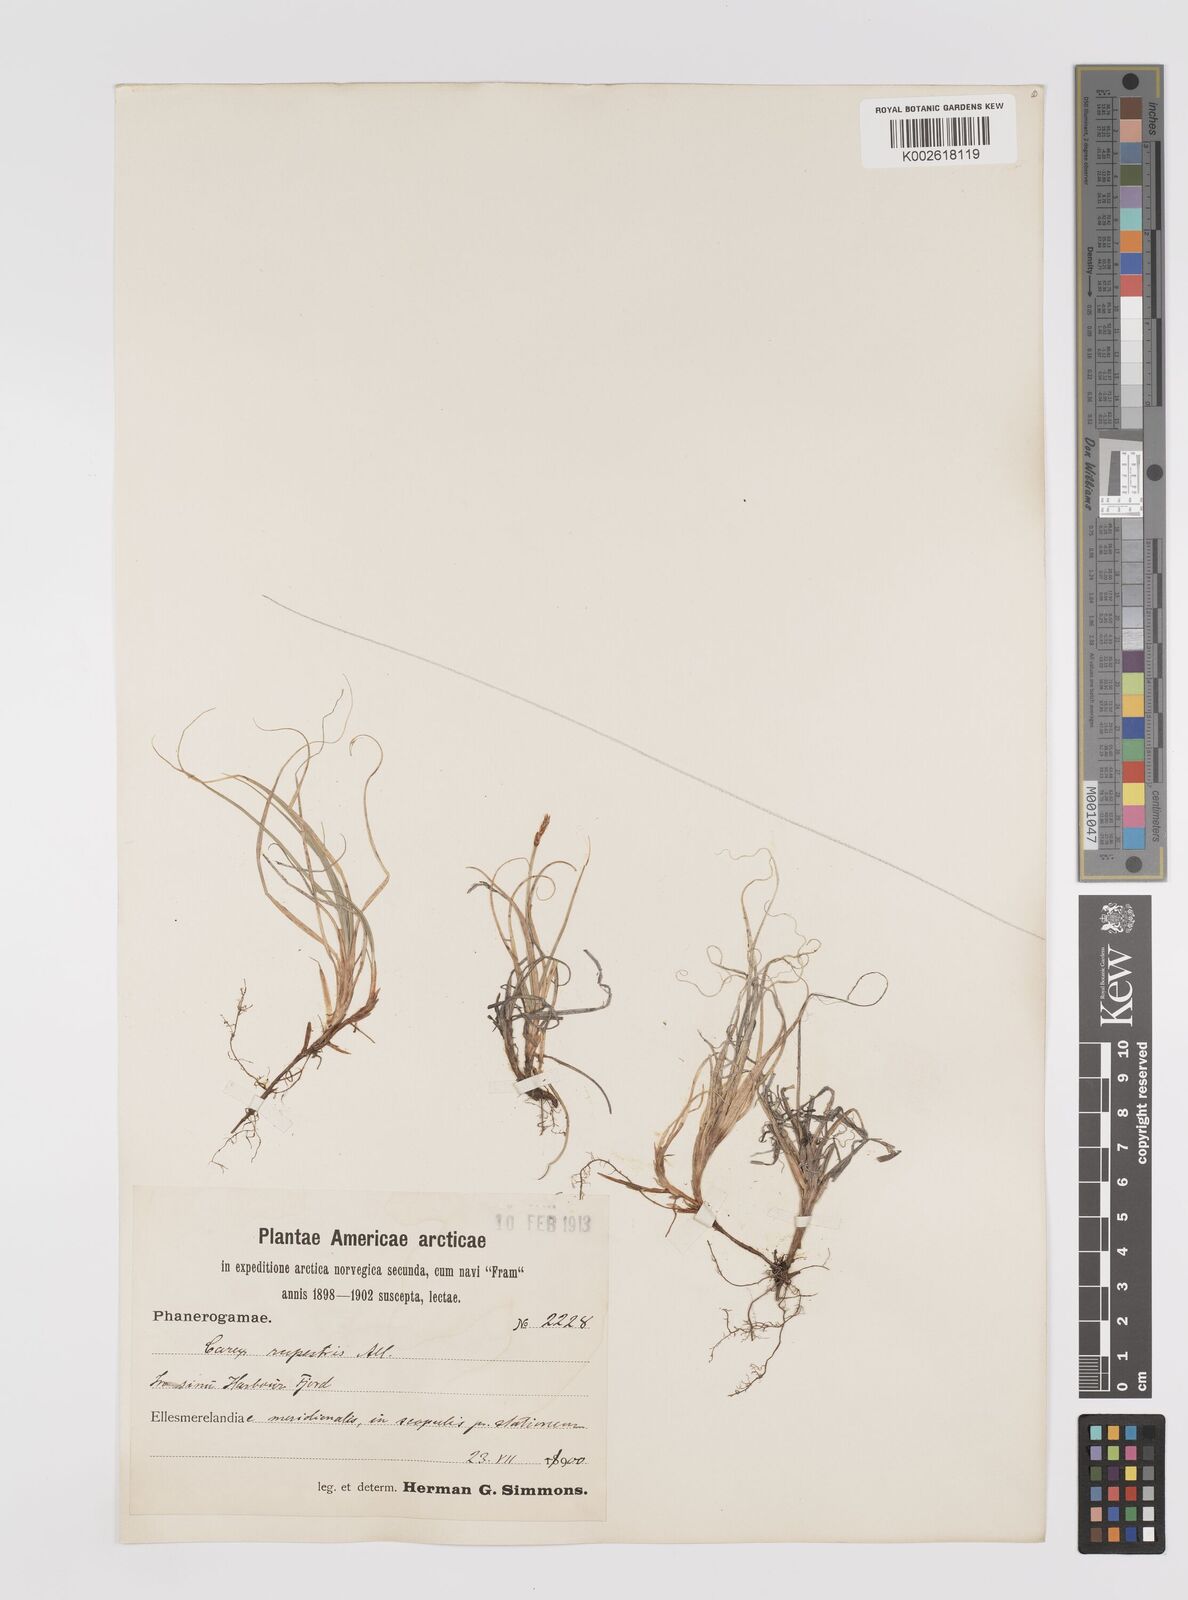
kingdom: Plantae
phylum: Tracheophyta
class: Liliopsida
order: Poales
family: Cyperaceae
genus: Carex
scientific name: Carex rupestris
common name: Rock sedge
